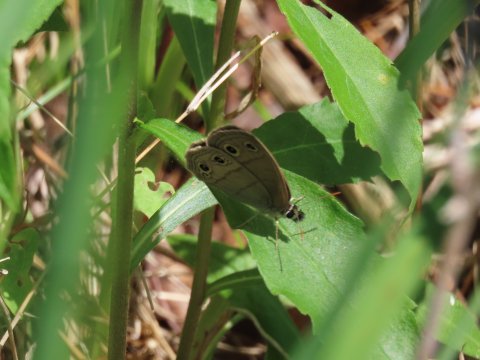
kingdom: Animalia
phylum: Arthropoda
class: Insecta
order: Lepidoptera
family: Nymphalidae
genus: Euptychia
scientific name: Euptychia cymela
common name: Little Wood Satyr
